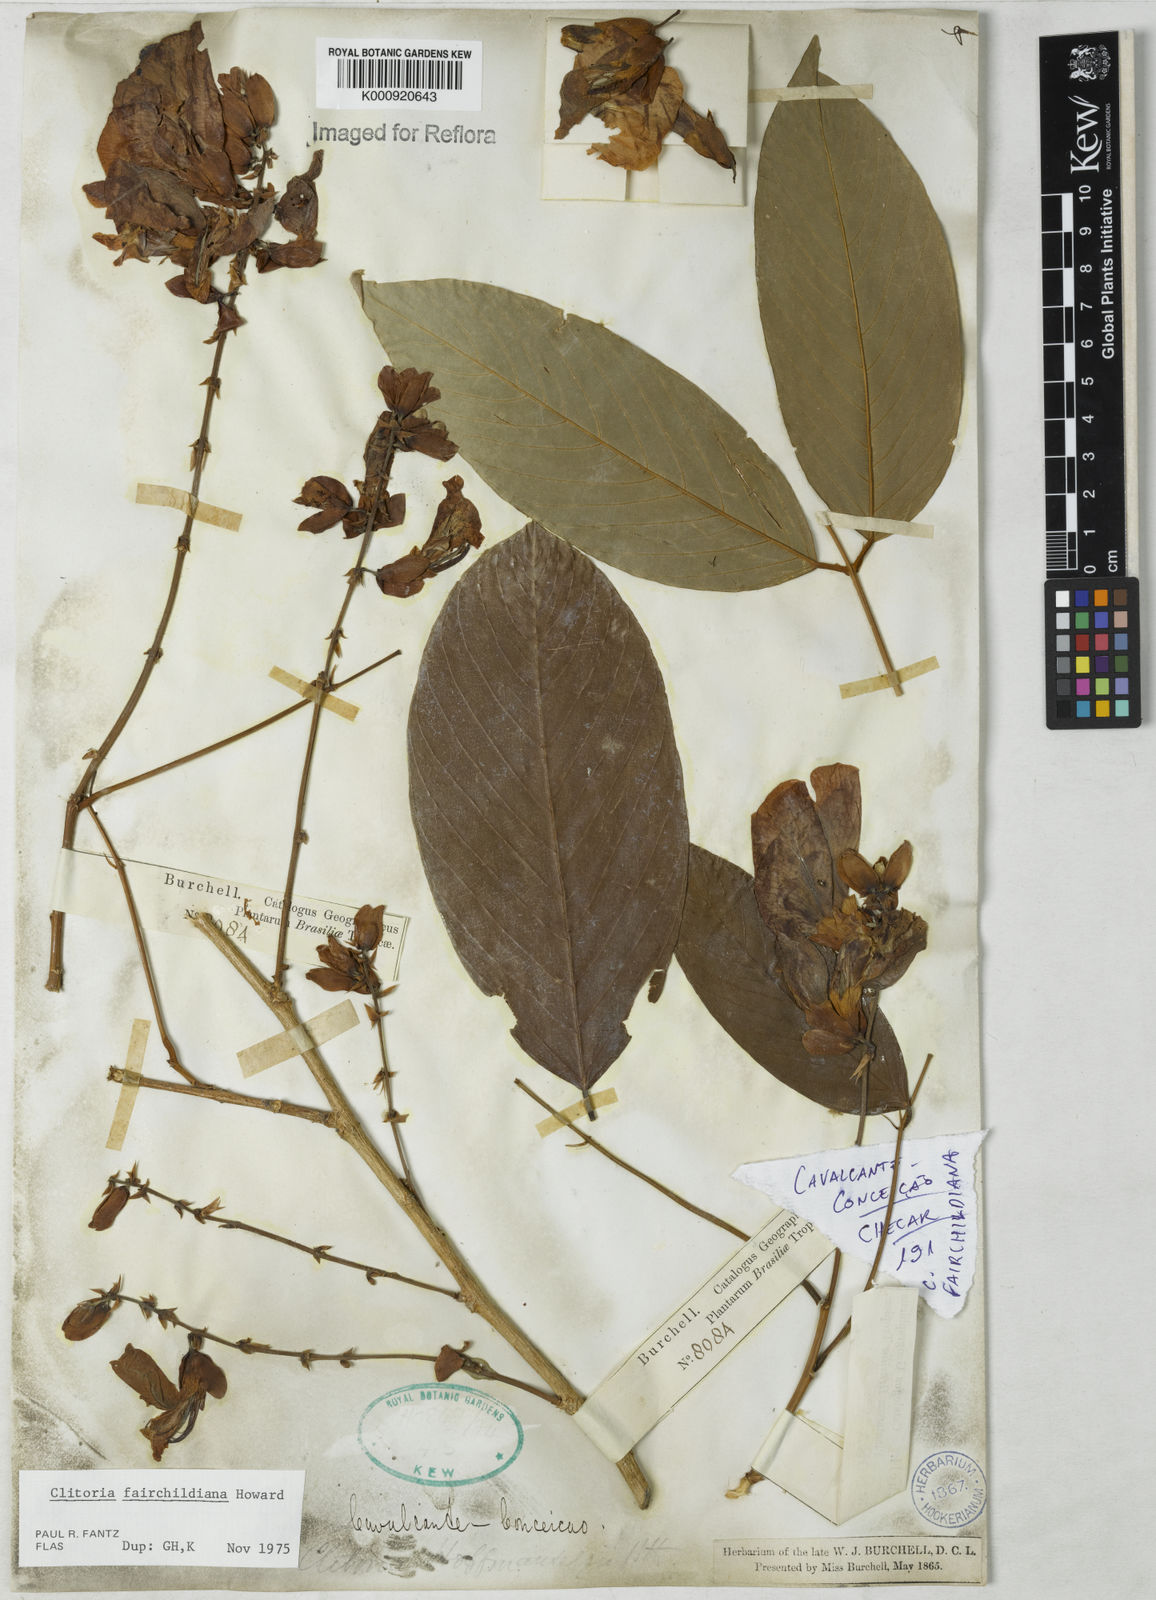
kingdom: Plantae
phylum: Tracheophyta
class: Magnoliopsida
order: Fabales
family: Fabaceae
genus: Clitoria
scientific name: Clitoria fairchildiana
